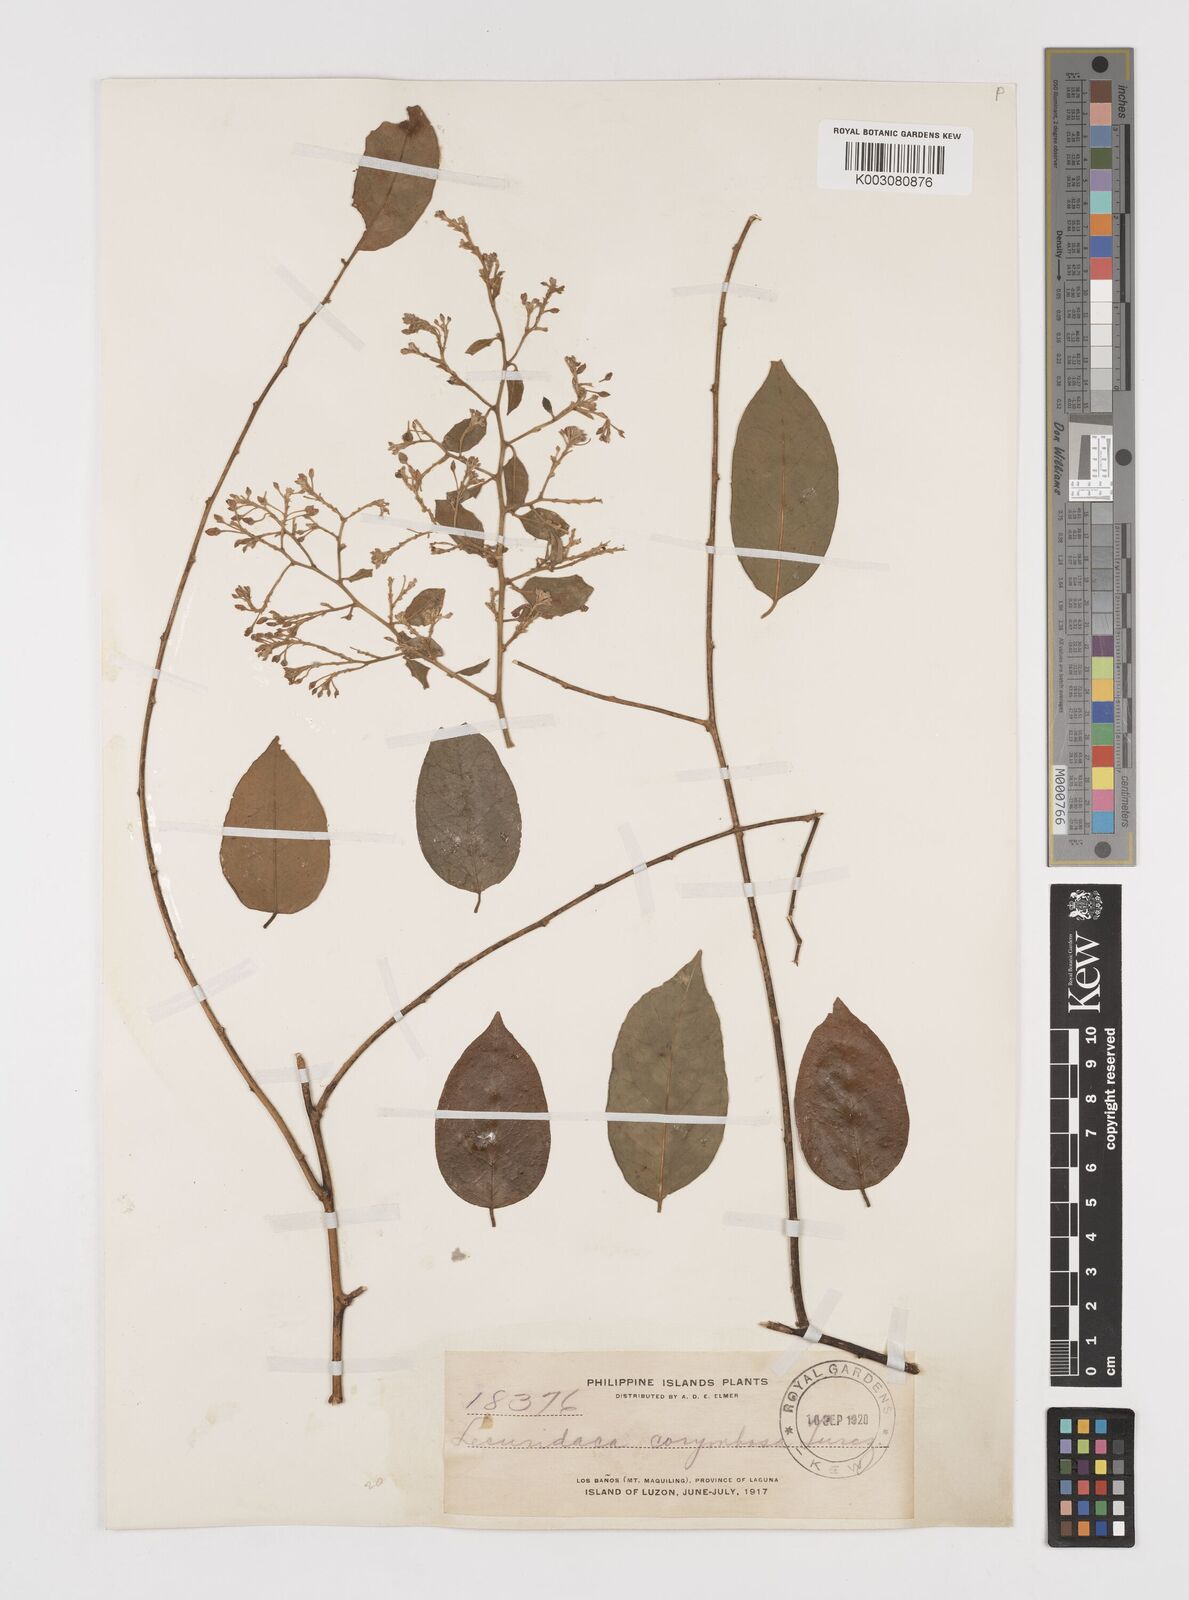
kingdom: Plantae
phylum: Tracheophyta
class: Magnoliopsida
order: Fabales
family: Polygalaceae
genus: Securidaca
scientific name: Securidaca inappendiculata
